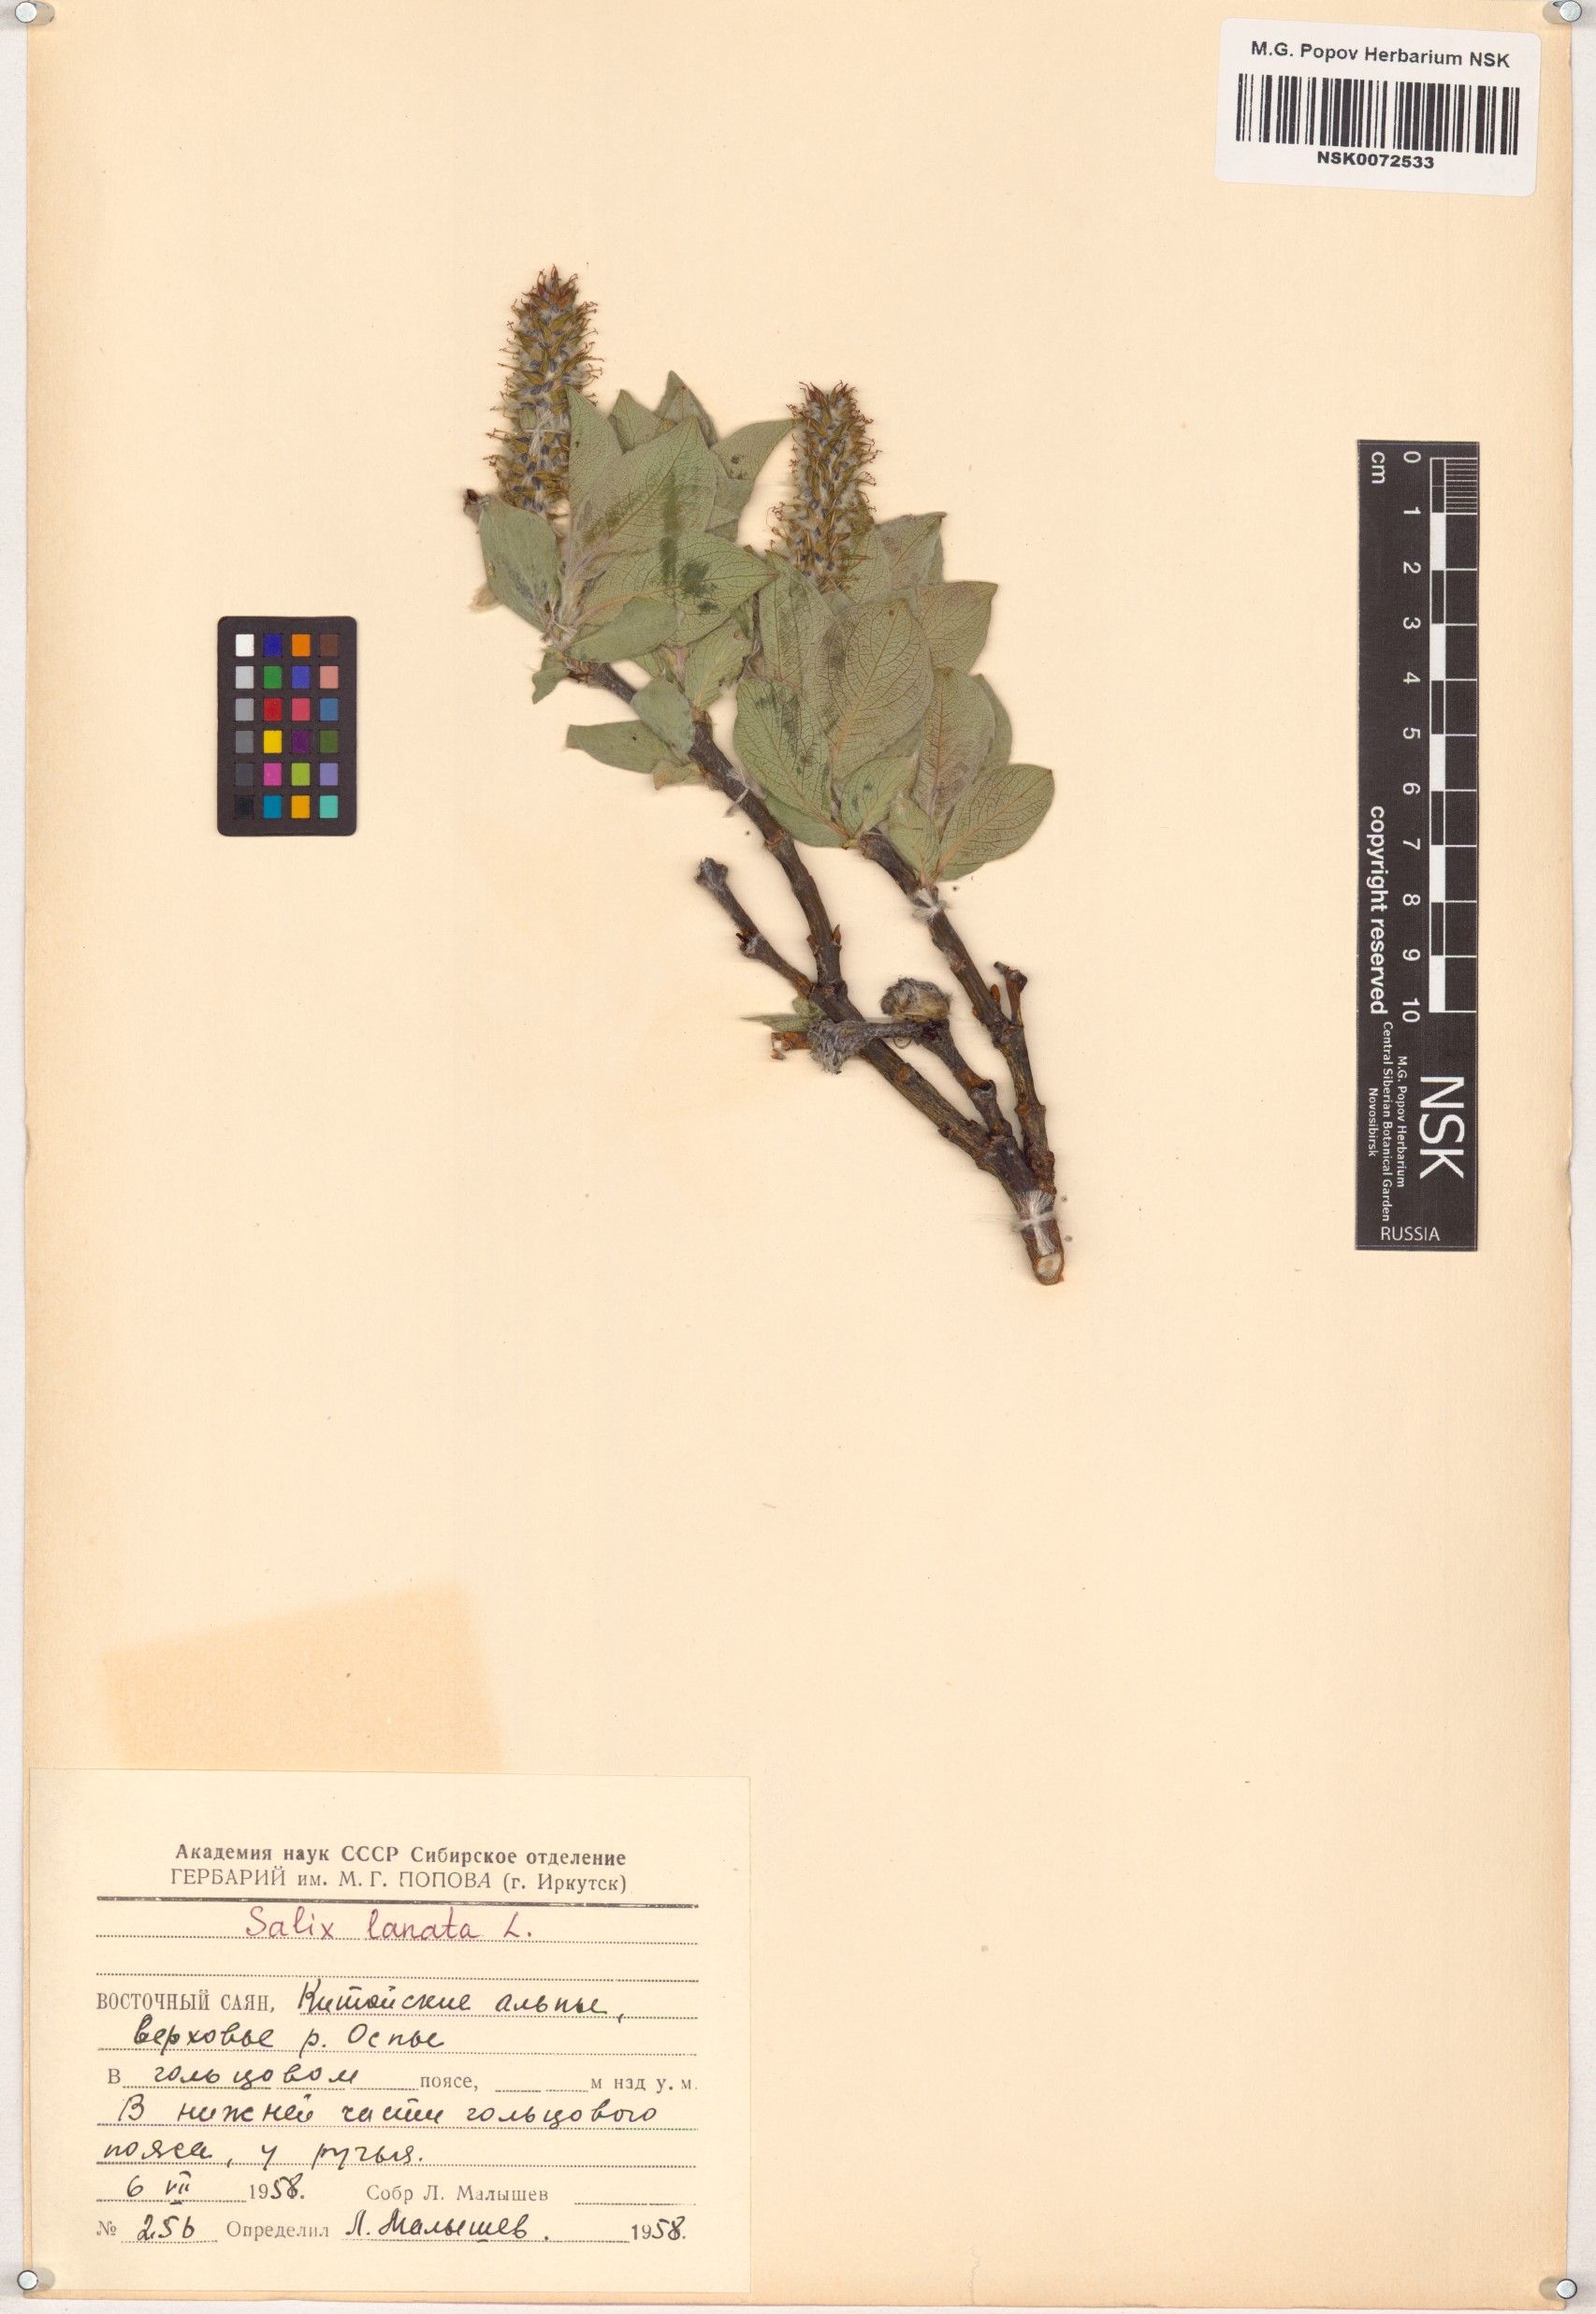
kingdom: Plantae
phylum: Tracheophyta
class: Magnoliopsida
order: Malpighiales
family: Salicaceae
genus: Salix
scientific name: Salix lanata
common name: Woolly willow
